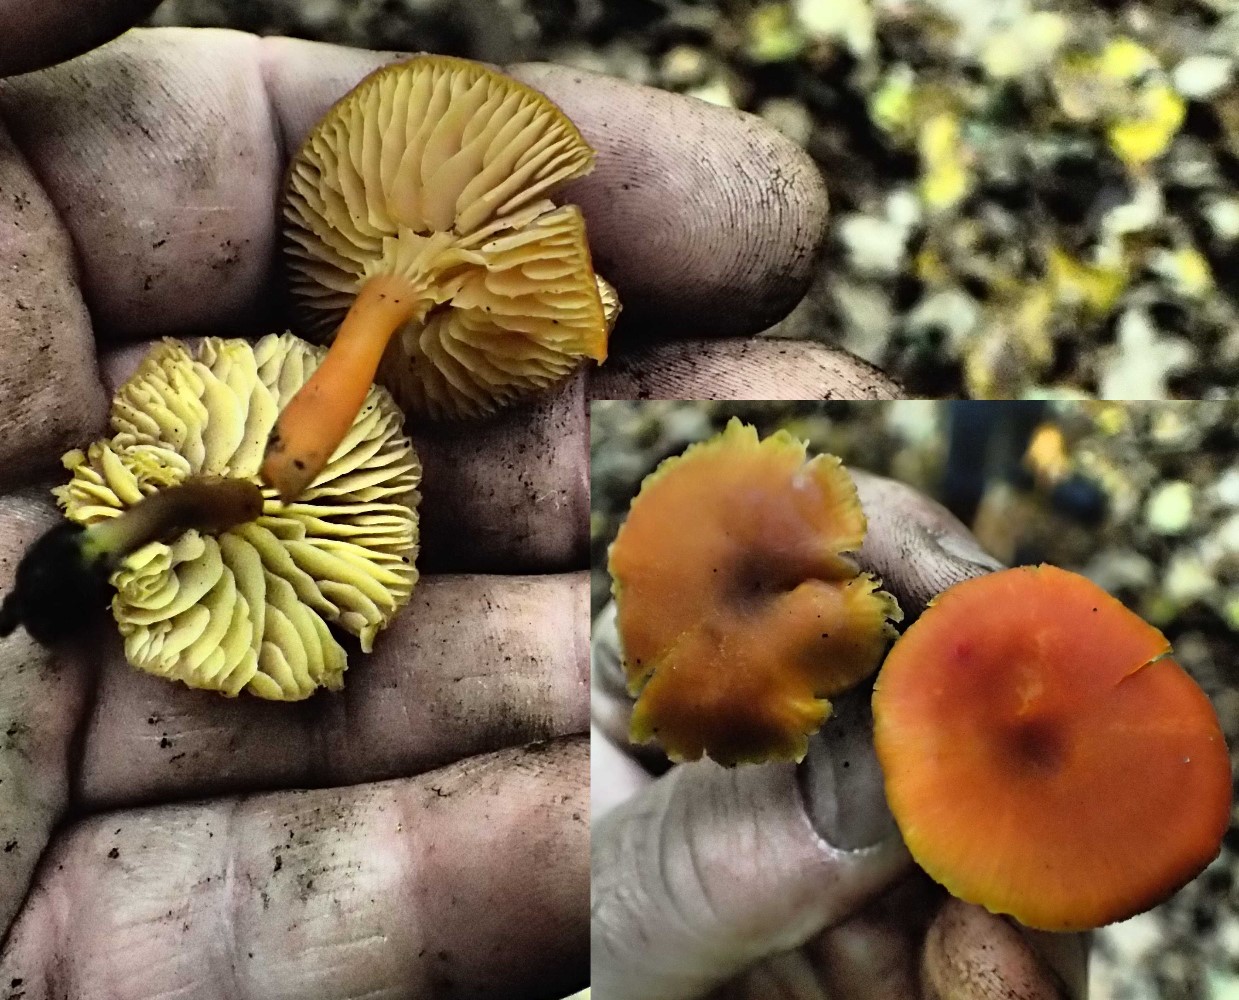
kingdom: Fungi
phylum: Basidiomycota
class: Agaricomycetes
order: Agaricales
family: Hygrophoraceae
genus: Hygrocybe
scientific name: Hygrocybe miniata
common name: mønje-vokshat
